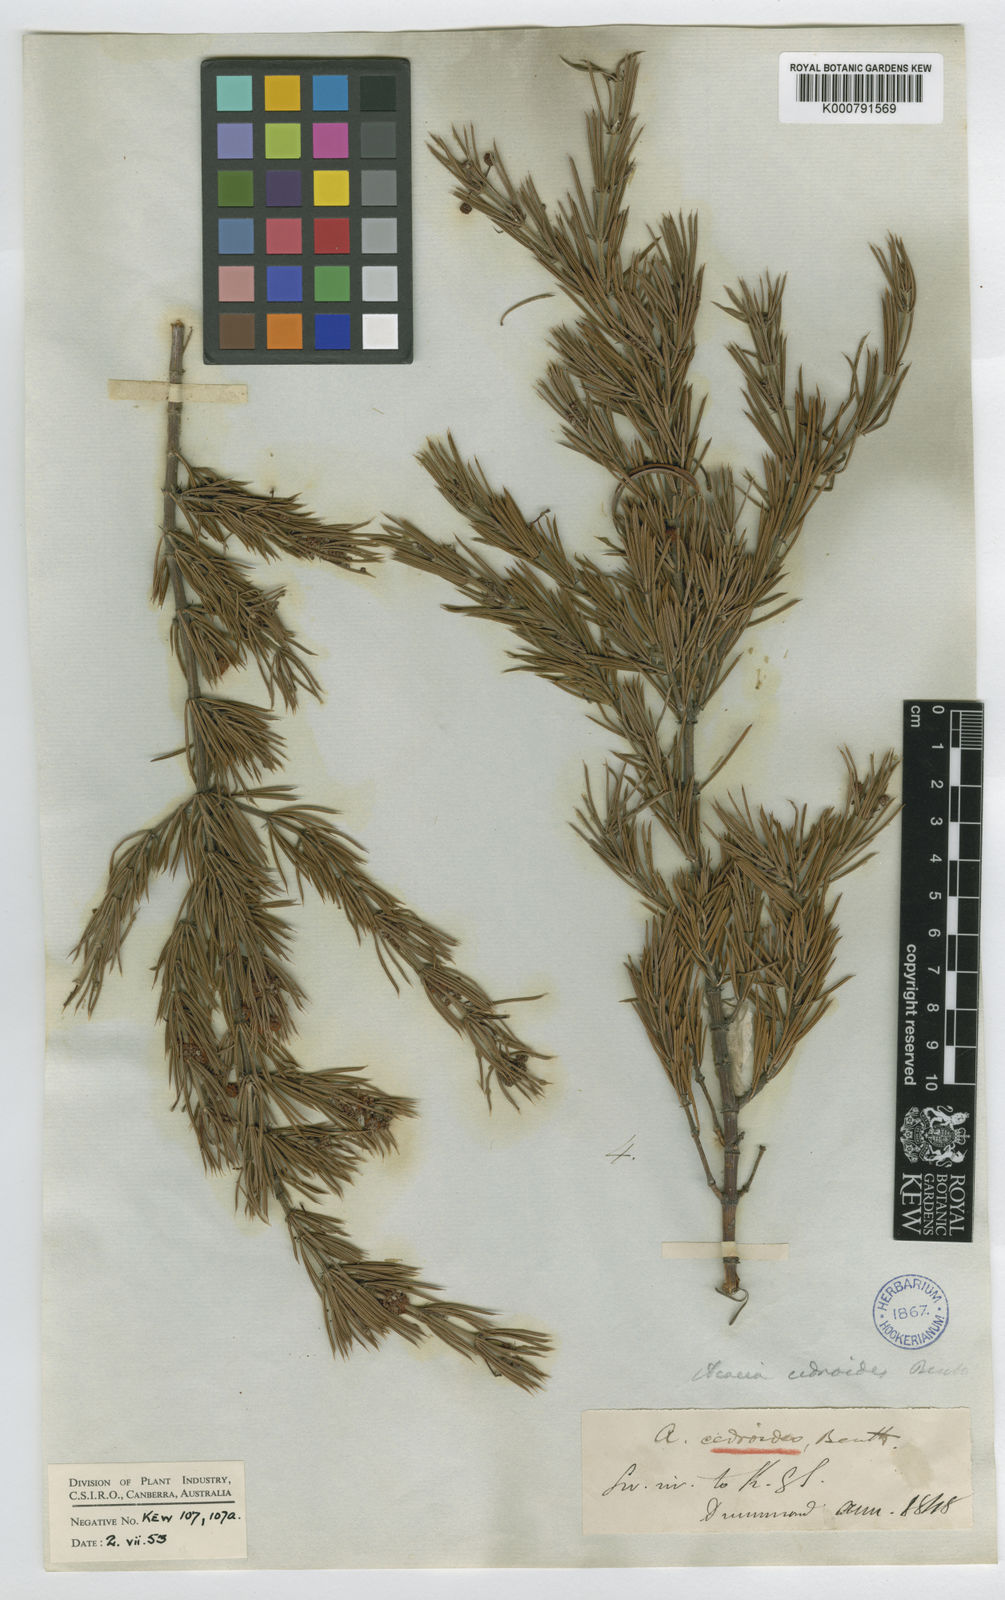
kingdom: Plantae
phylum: Tracheophyta
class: Magnoliopsida
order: Fabales
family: Fabaceae
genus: Acacia
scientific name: Acacia
